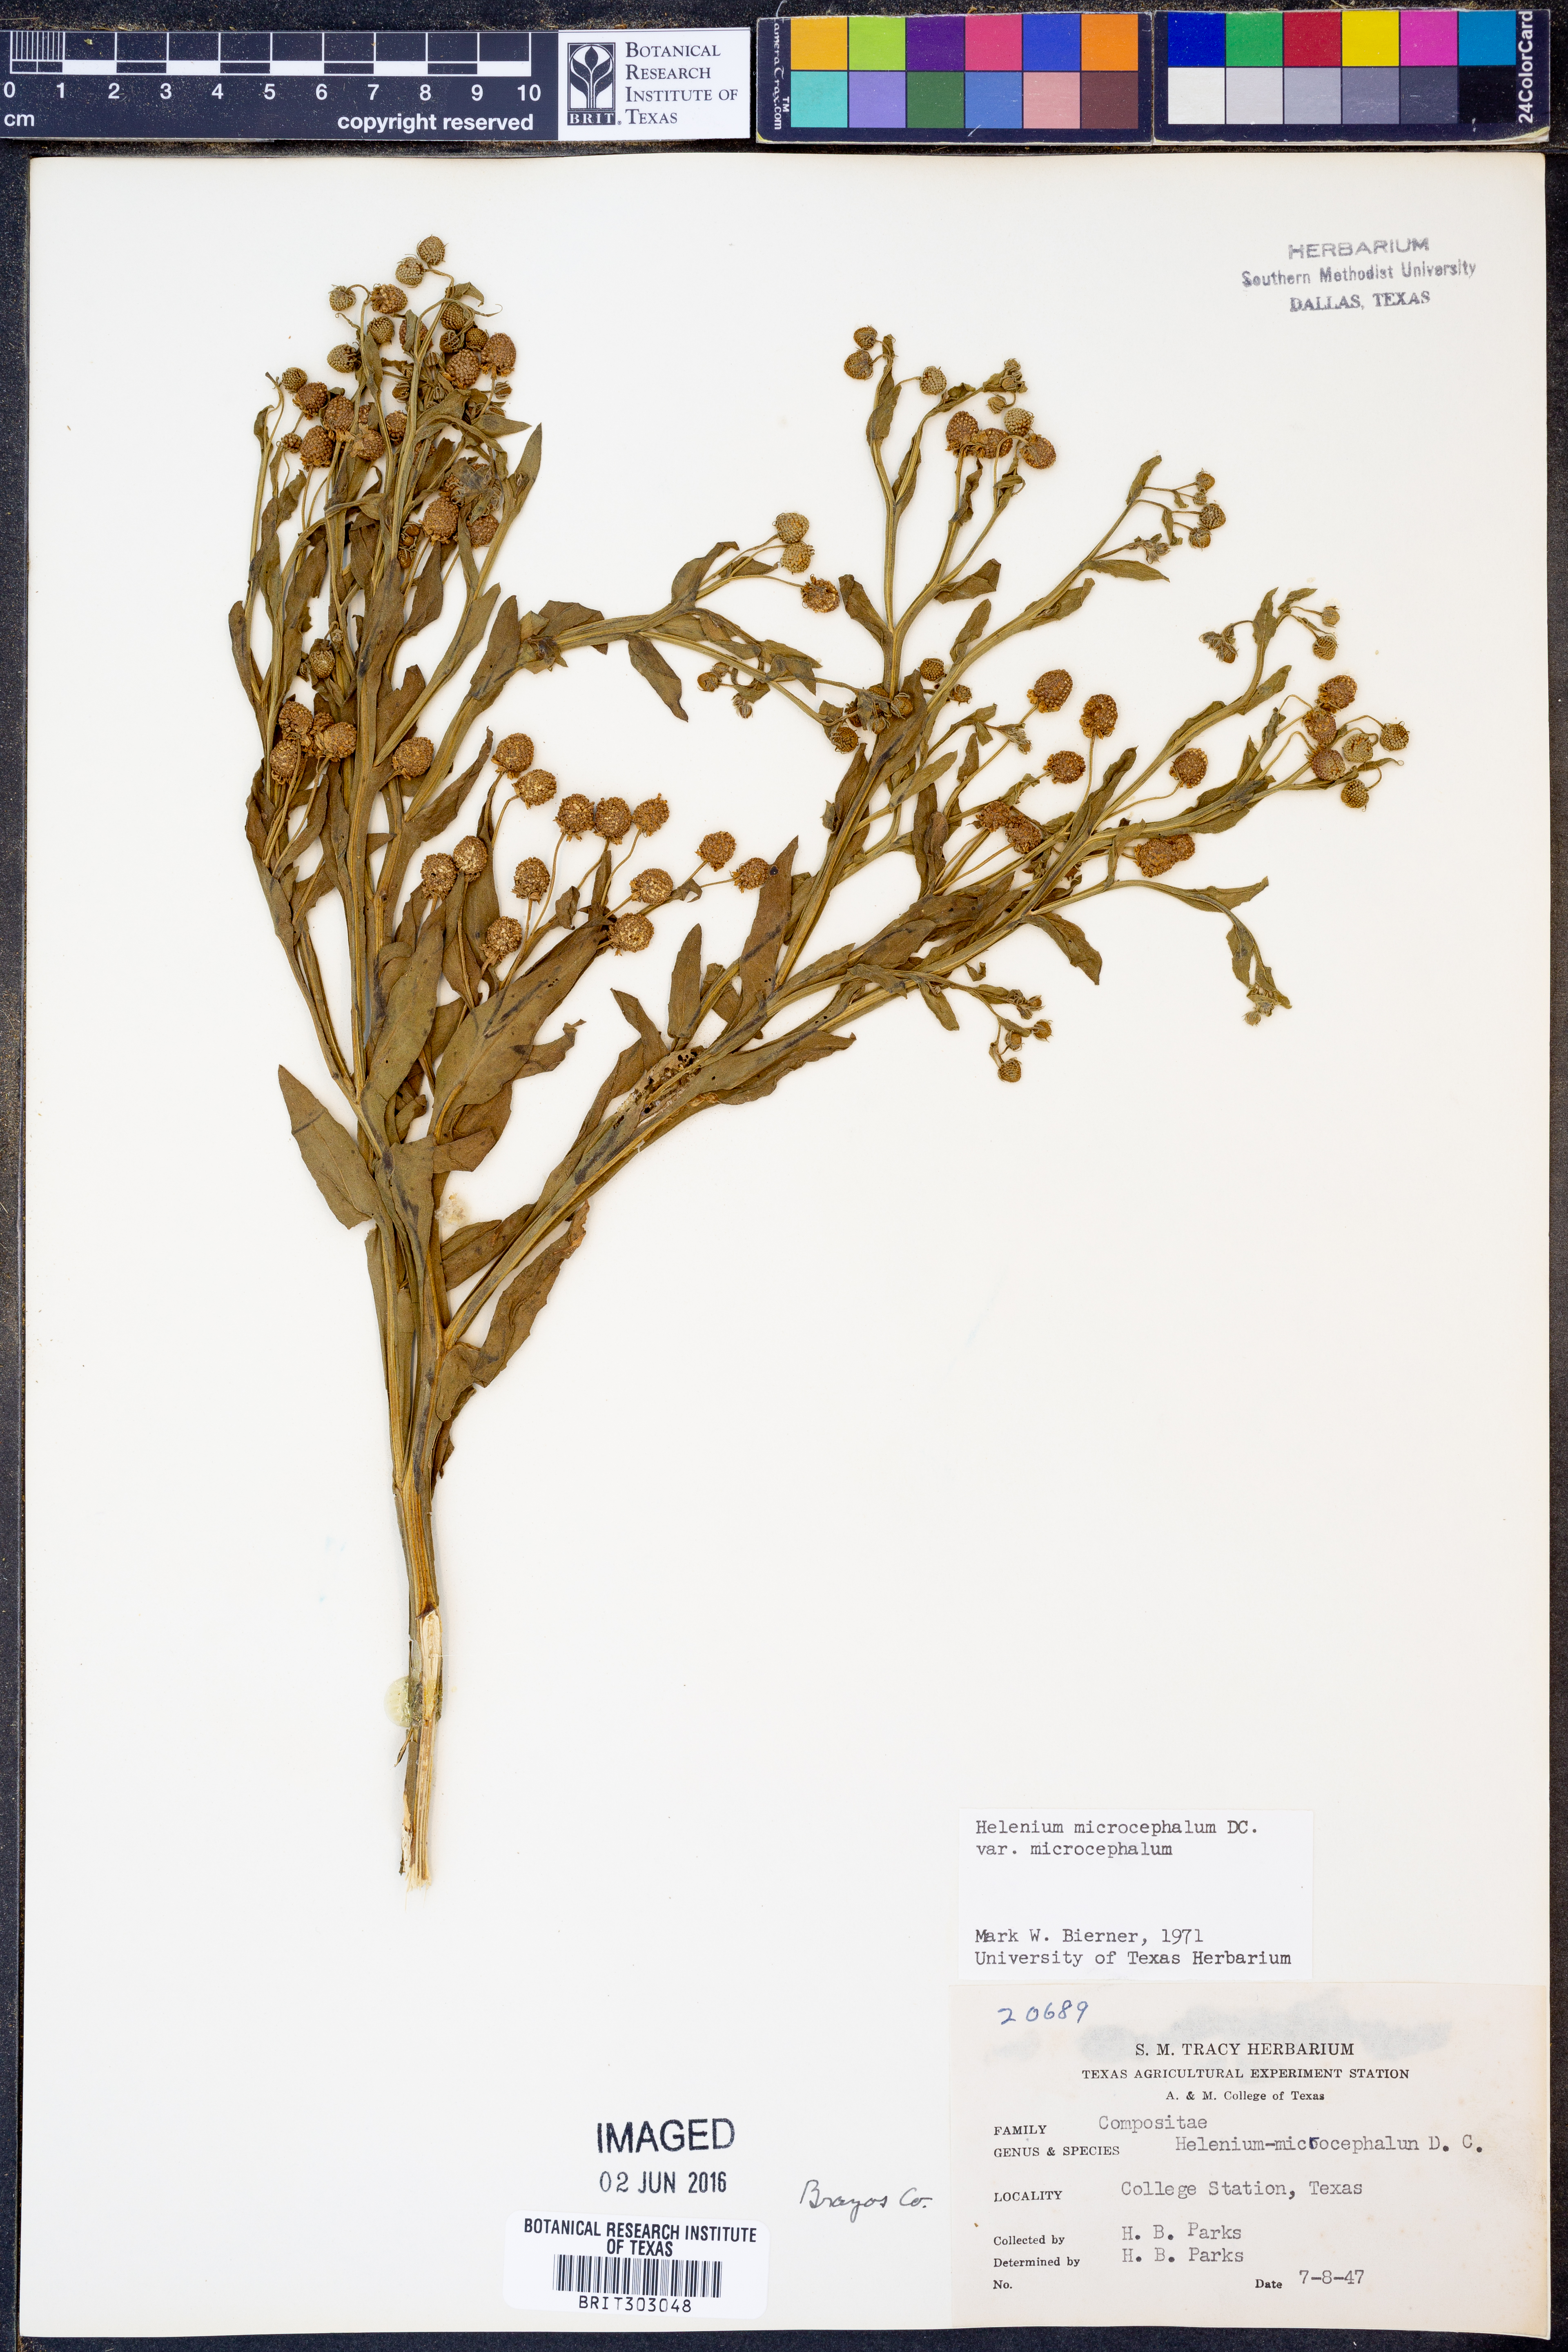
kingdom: Plantae
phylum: Tracheophyta
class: Magnoliopsida
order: Asterales
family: Asteraceae
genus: Helenium
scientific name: Helenium microcephalum
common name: Smallhead sneezeweed
